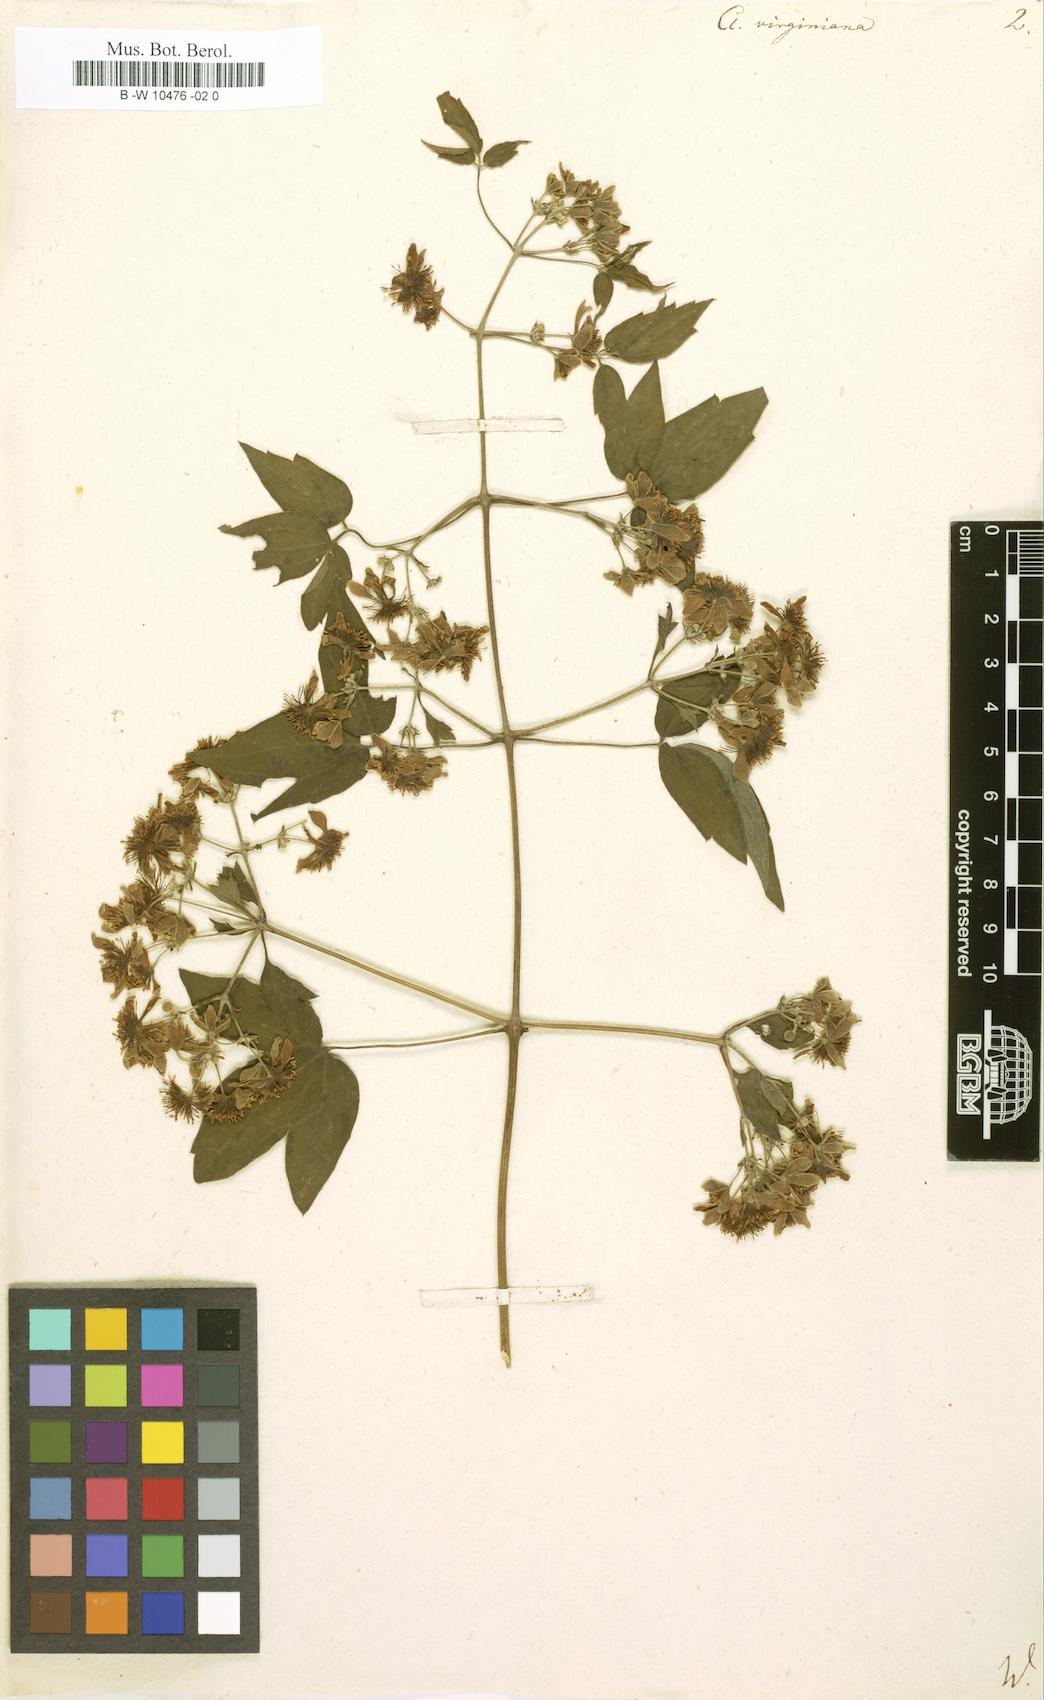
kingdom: Plantae
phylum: Tracheophyta
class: Magnoliopsida
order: Ranunculales
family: Ranunculaceae
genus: Clematis
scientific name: Clematis virginiana
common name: Virgin's-bower
